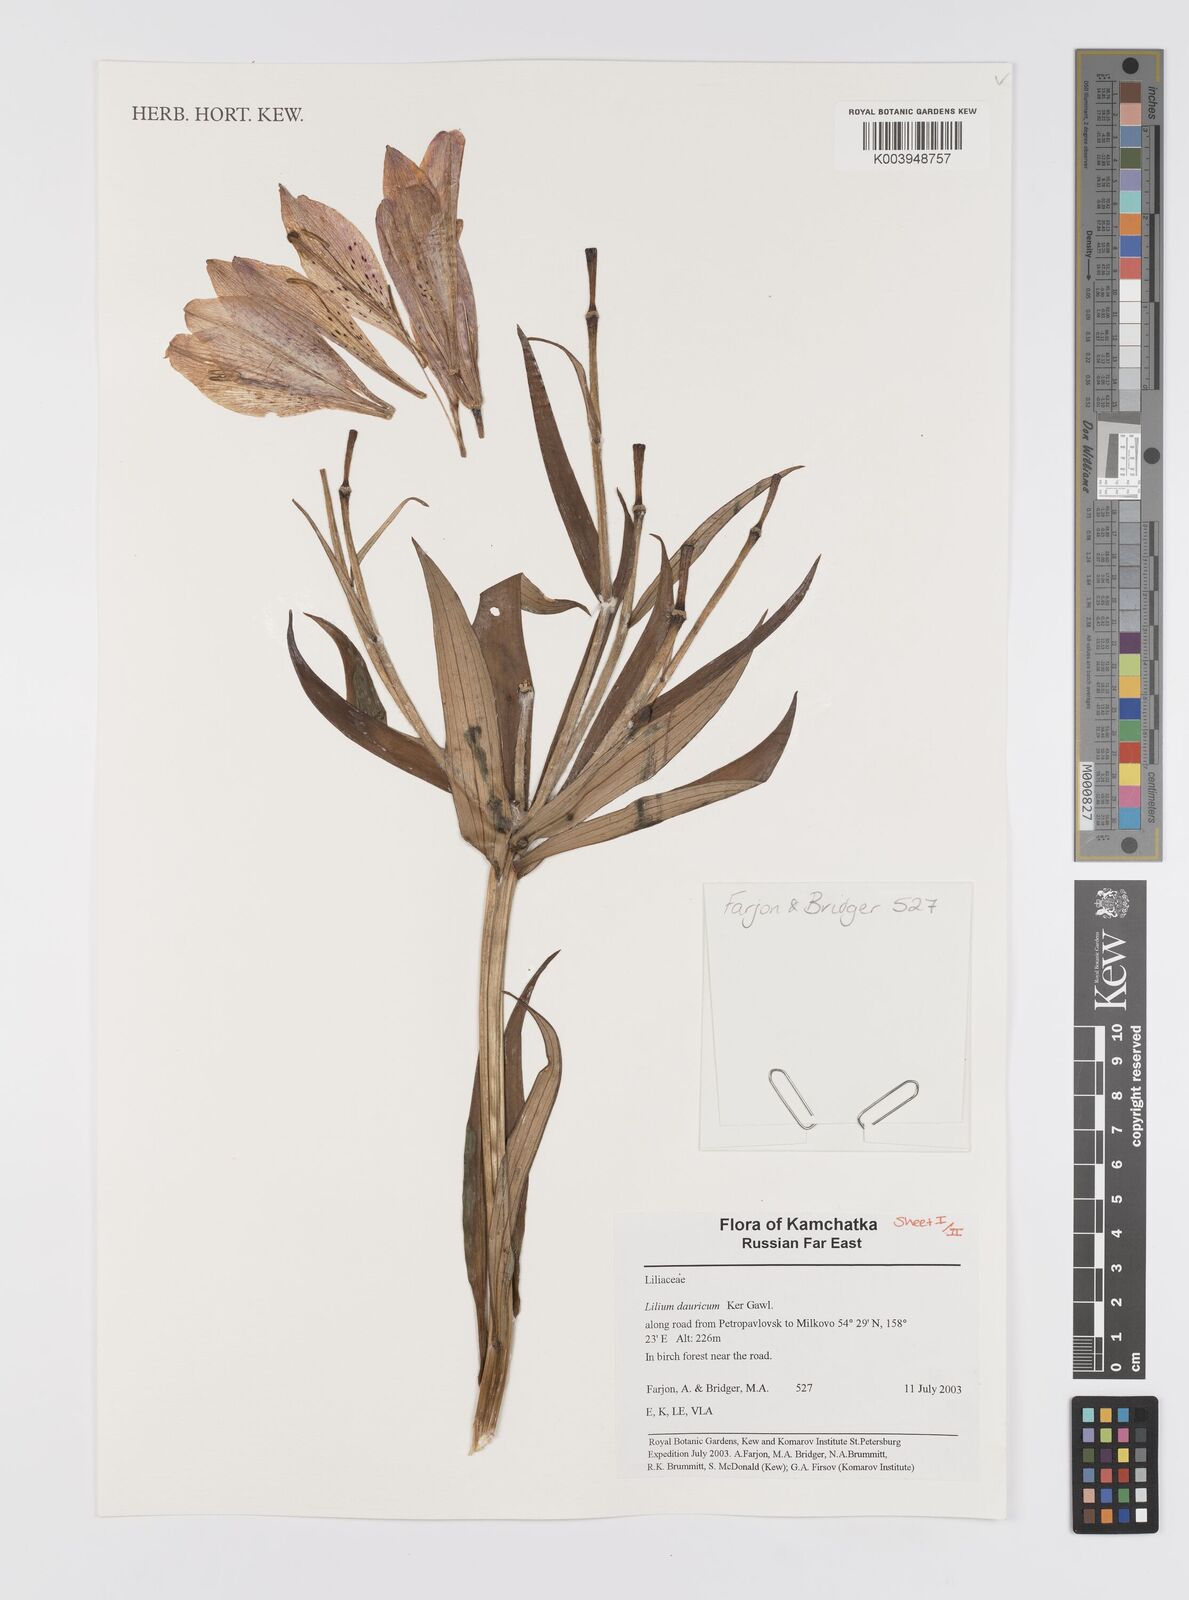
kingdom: Plantae
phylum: Tracheophyta
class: Liliopsida
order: Liliales
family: Liliaceae
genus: Lilium
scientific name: Lilium pensylvanicum
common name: Candlestick lily
